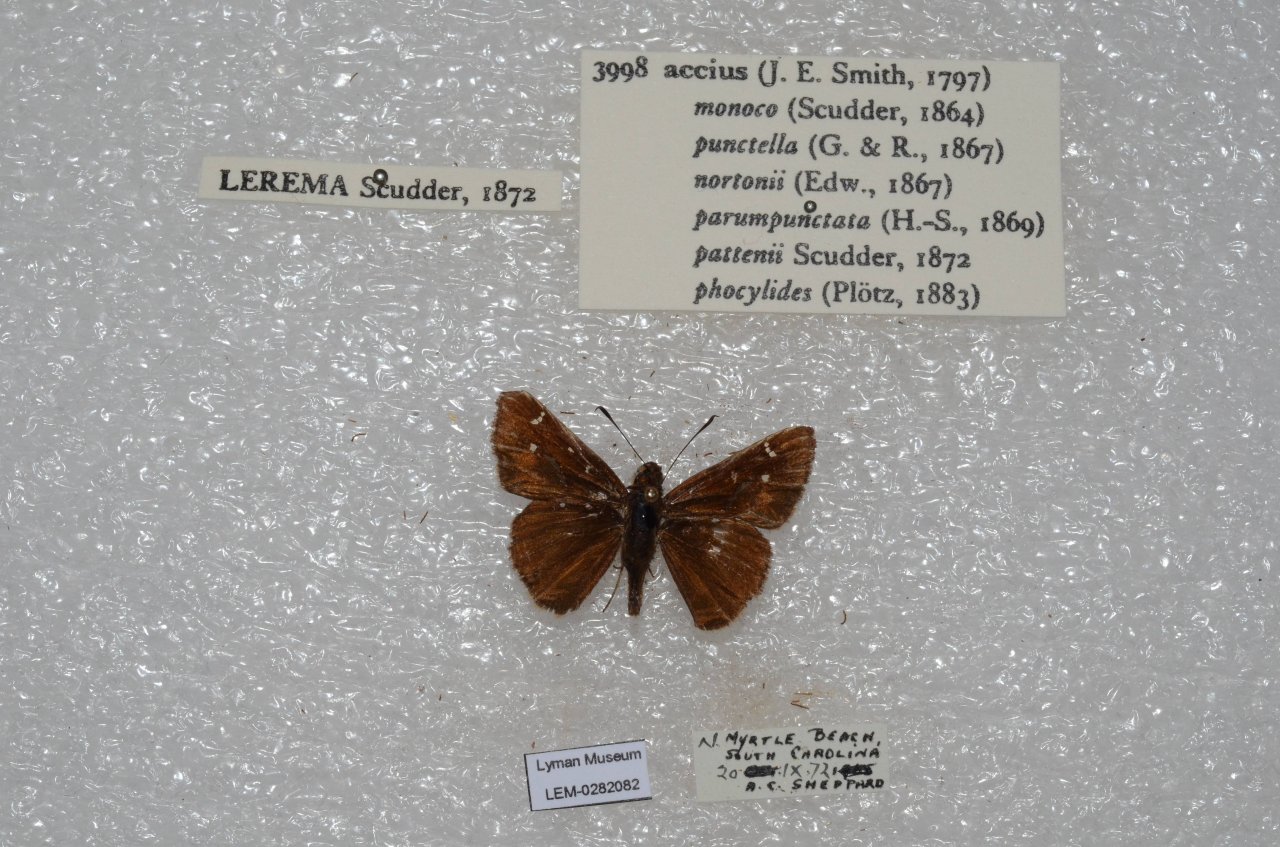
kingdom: Animalia
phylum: Arthropoda
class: Insecta
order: Lepidoptera
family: Hesperiidae
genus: Lerema
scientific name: Lerema accius
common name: Clouded Skipper
